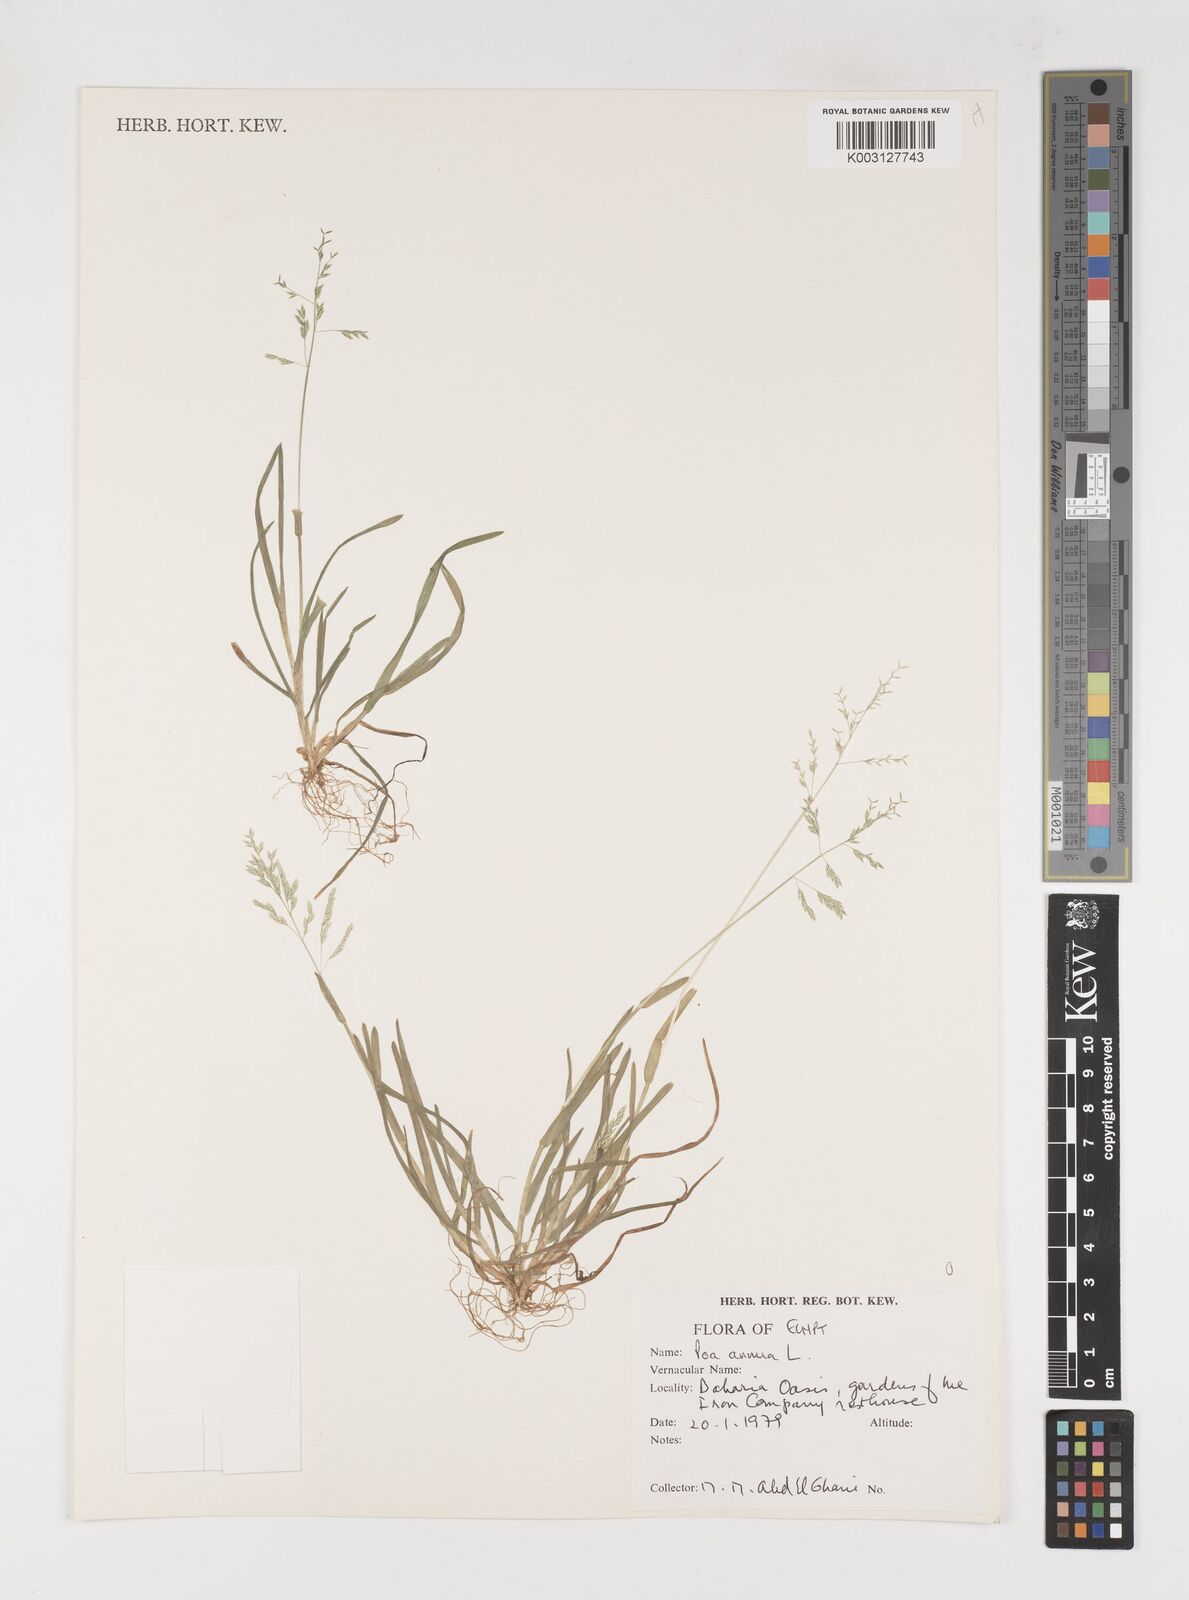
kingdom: Plantae
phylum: Tracheophyta
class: Liliopsida
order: Poales
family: Poaceae
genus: Poa
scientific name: Poa annua
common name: Annual bluegrass
